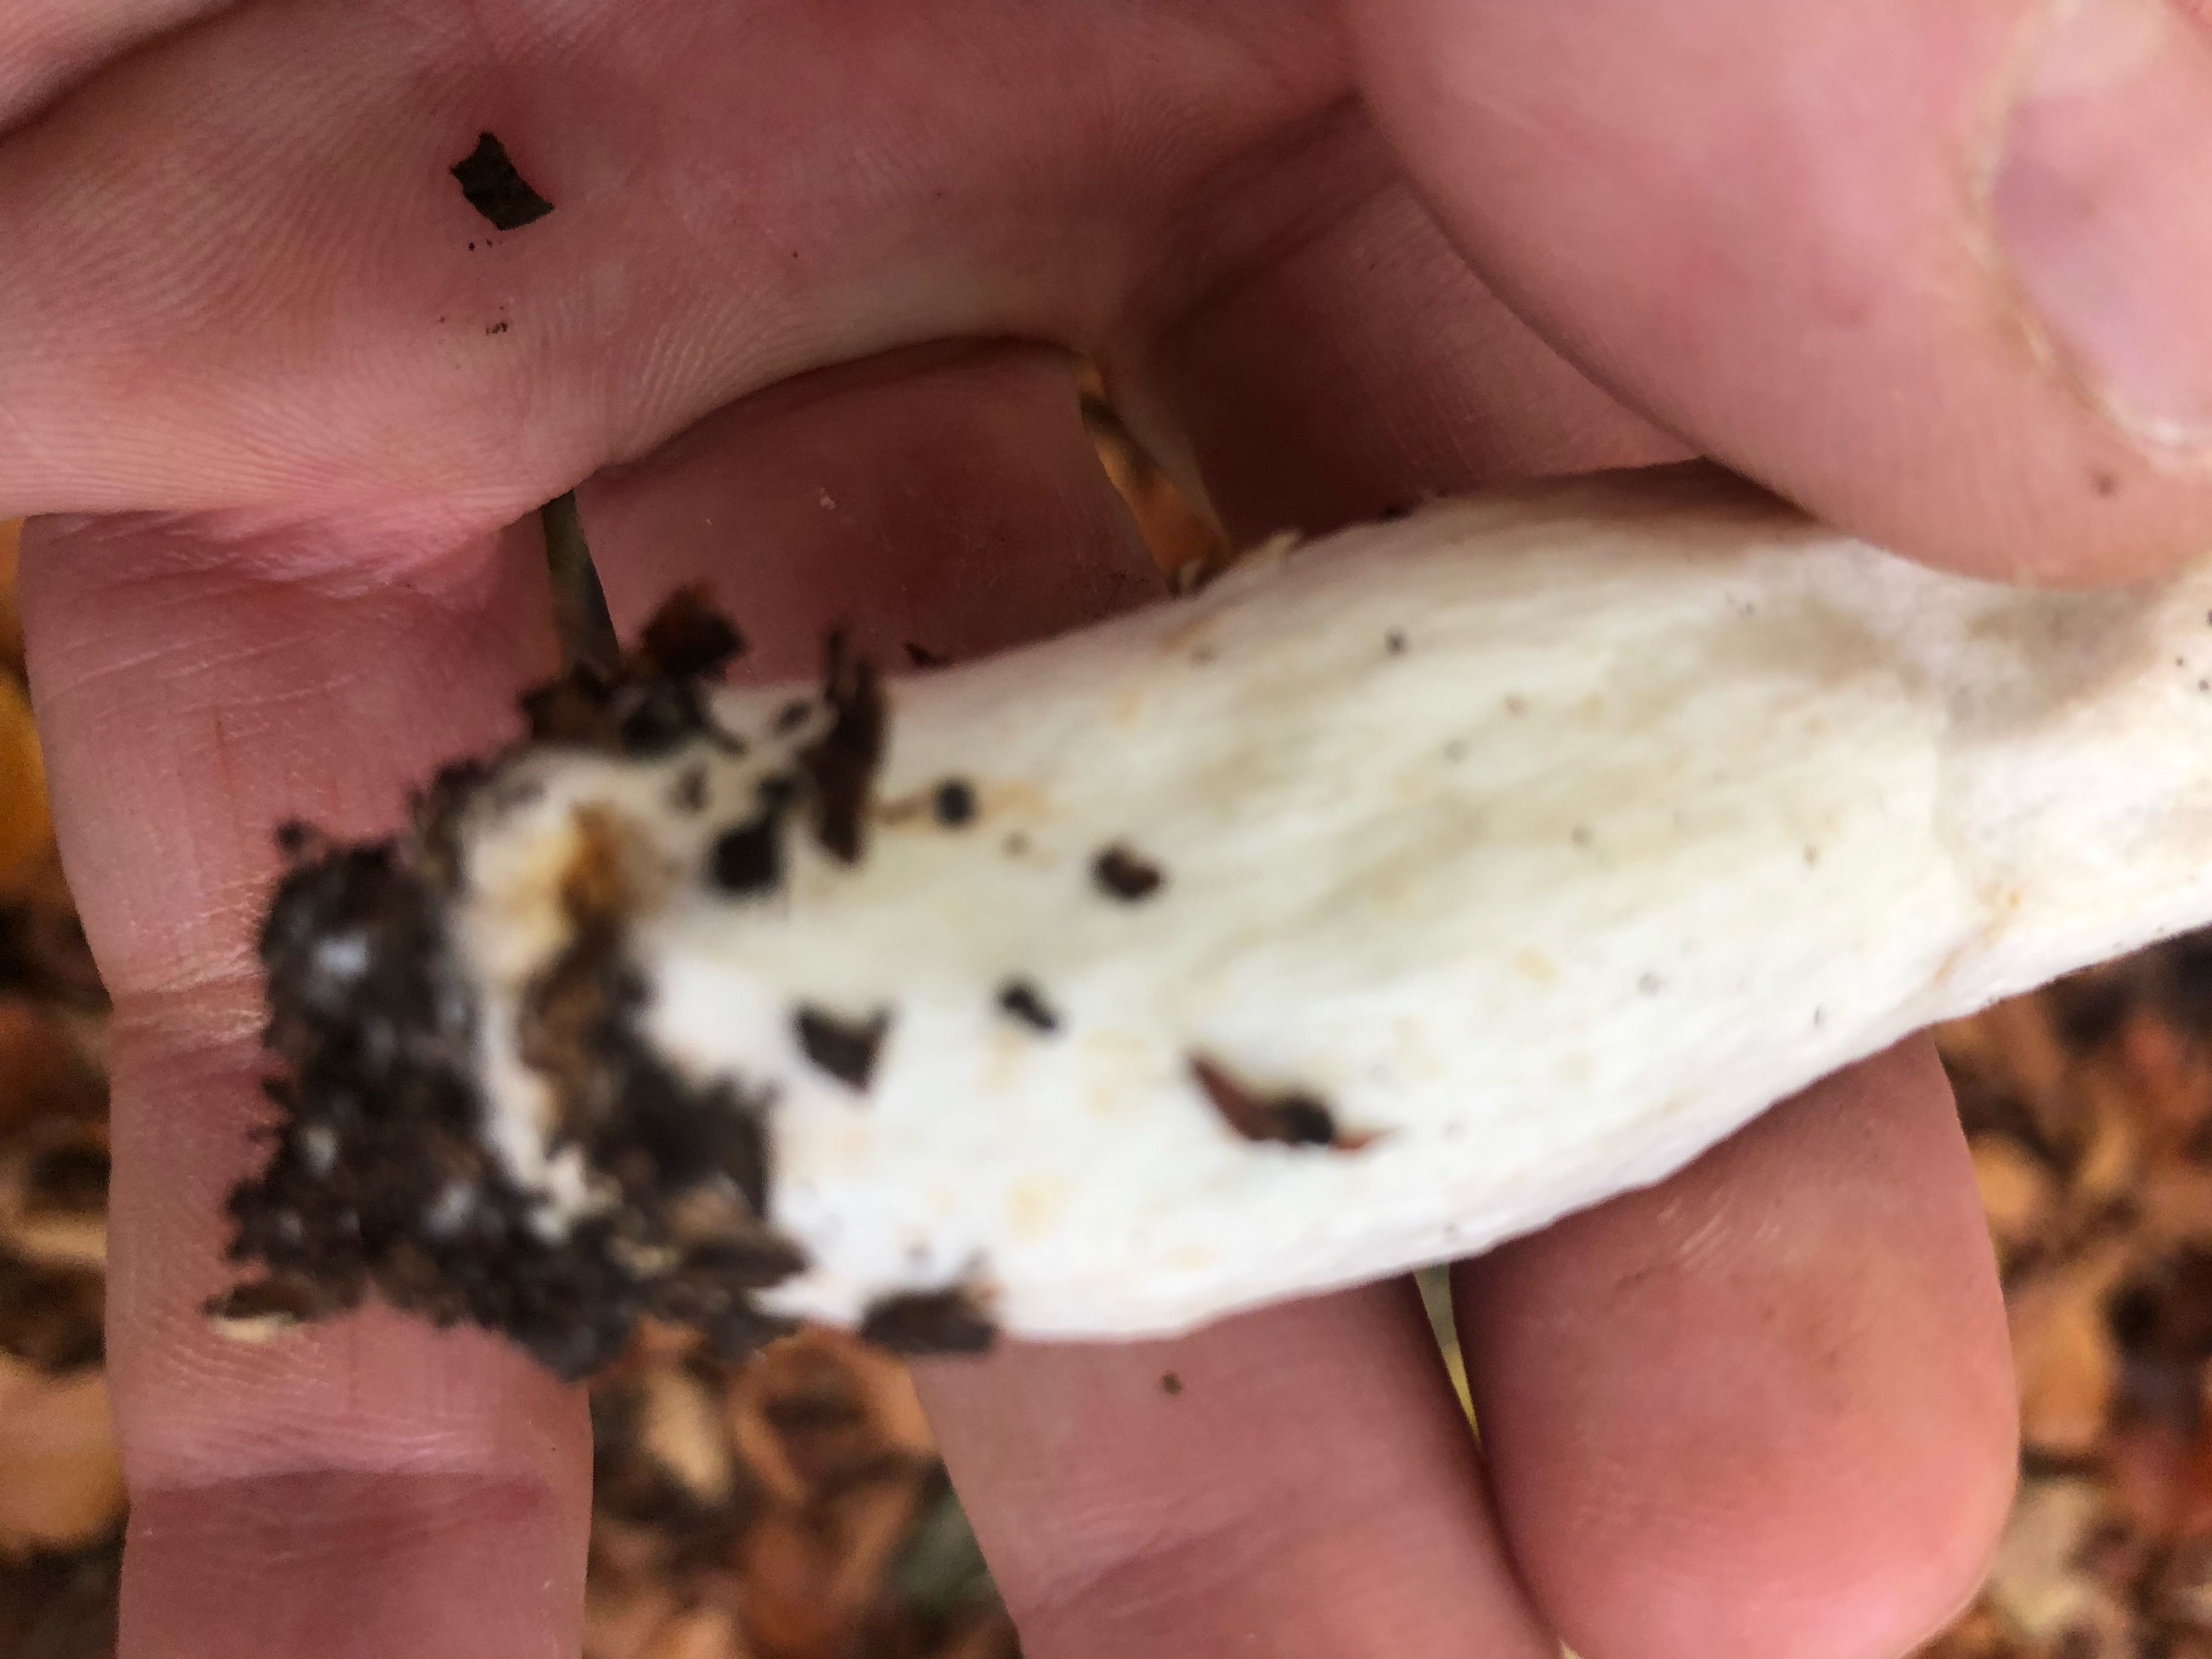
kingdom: Fungi
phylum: Basidiomycota
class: Agaricomycetes
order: Russulales
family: Russulaceae
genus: Russula
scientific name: Russula atropurpurea
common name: purpurbroget skørhat
